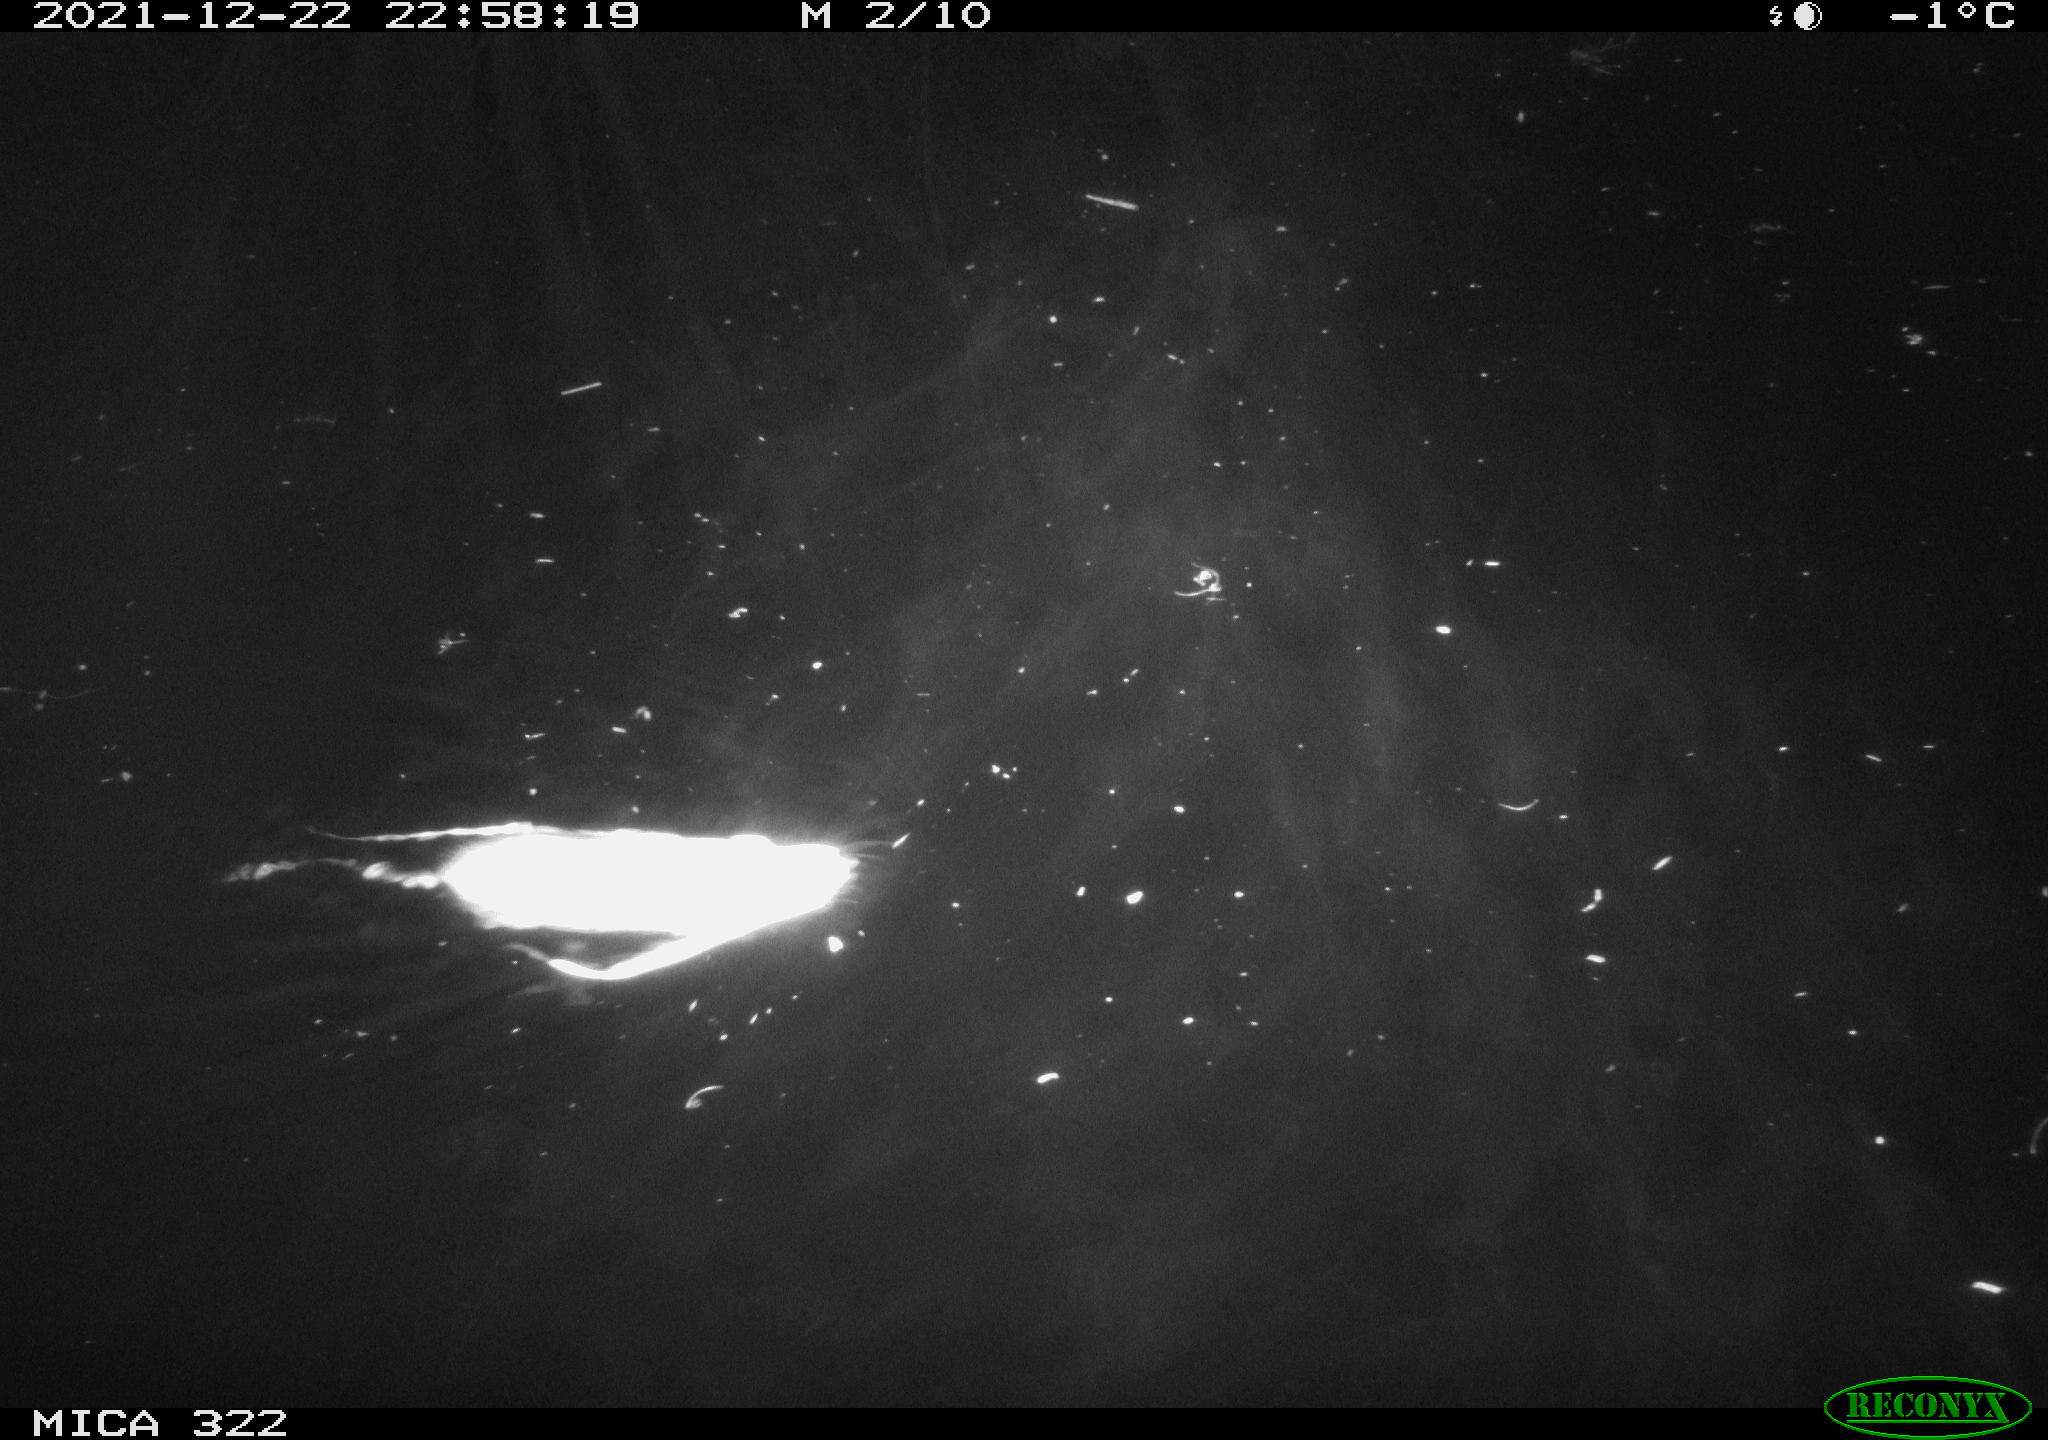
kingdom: Animalia
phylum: Chordata
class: Mammalia
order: Rodentia
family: Muridae
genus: Rattus
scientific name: Rattus norvegicus
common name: Brown rat
